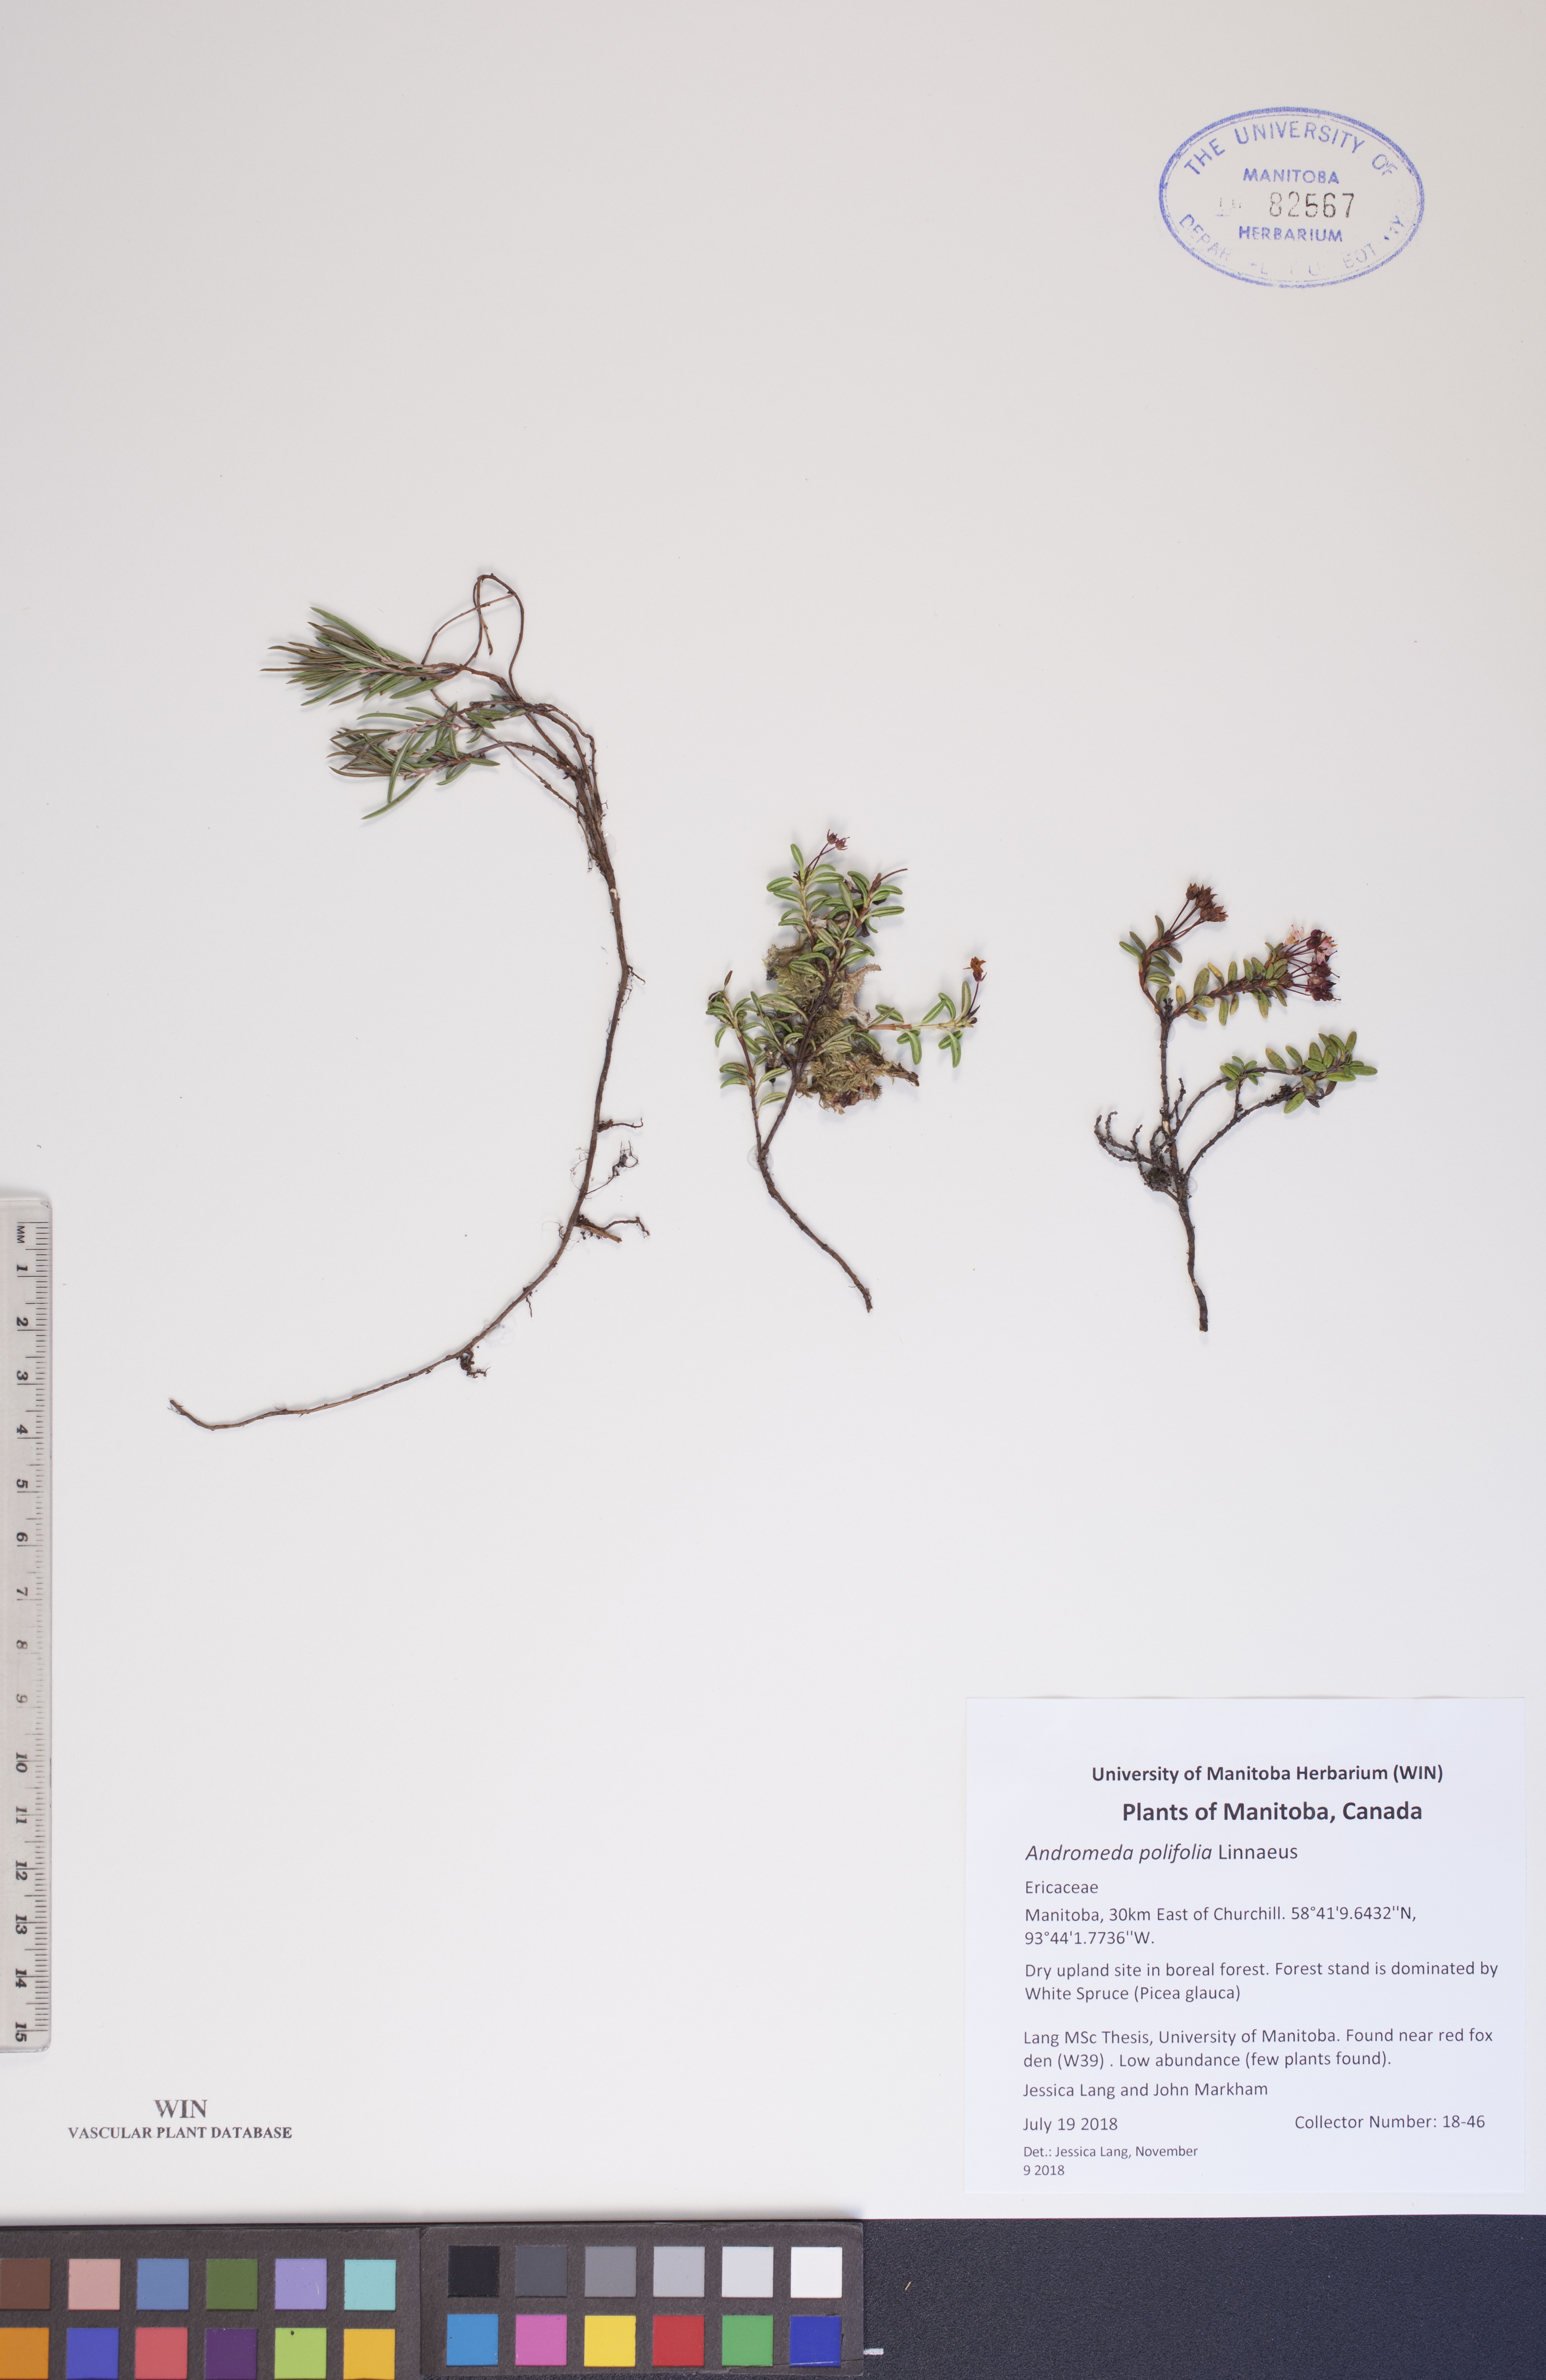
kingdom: Plantae
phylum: Tracheophyta
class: Magnoliopsida
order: Ericales
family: Ericaceae
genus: Andromeda
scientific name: Andromeda polifolia
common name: Bog-rosemary
